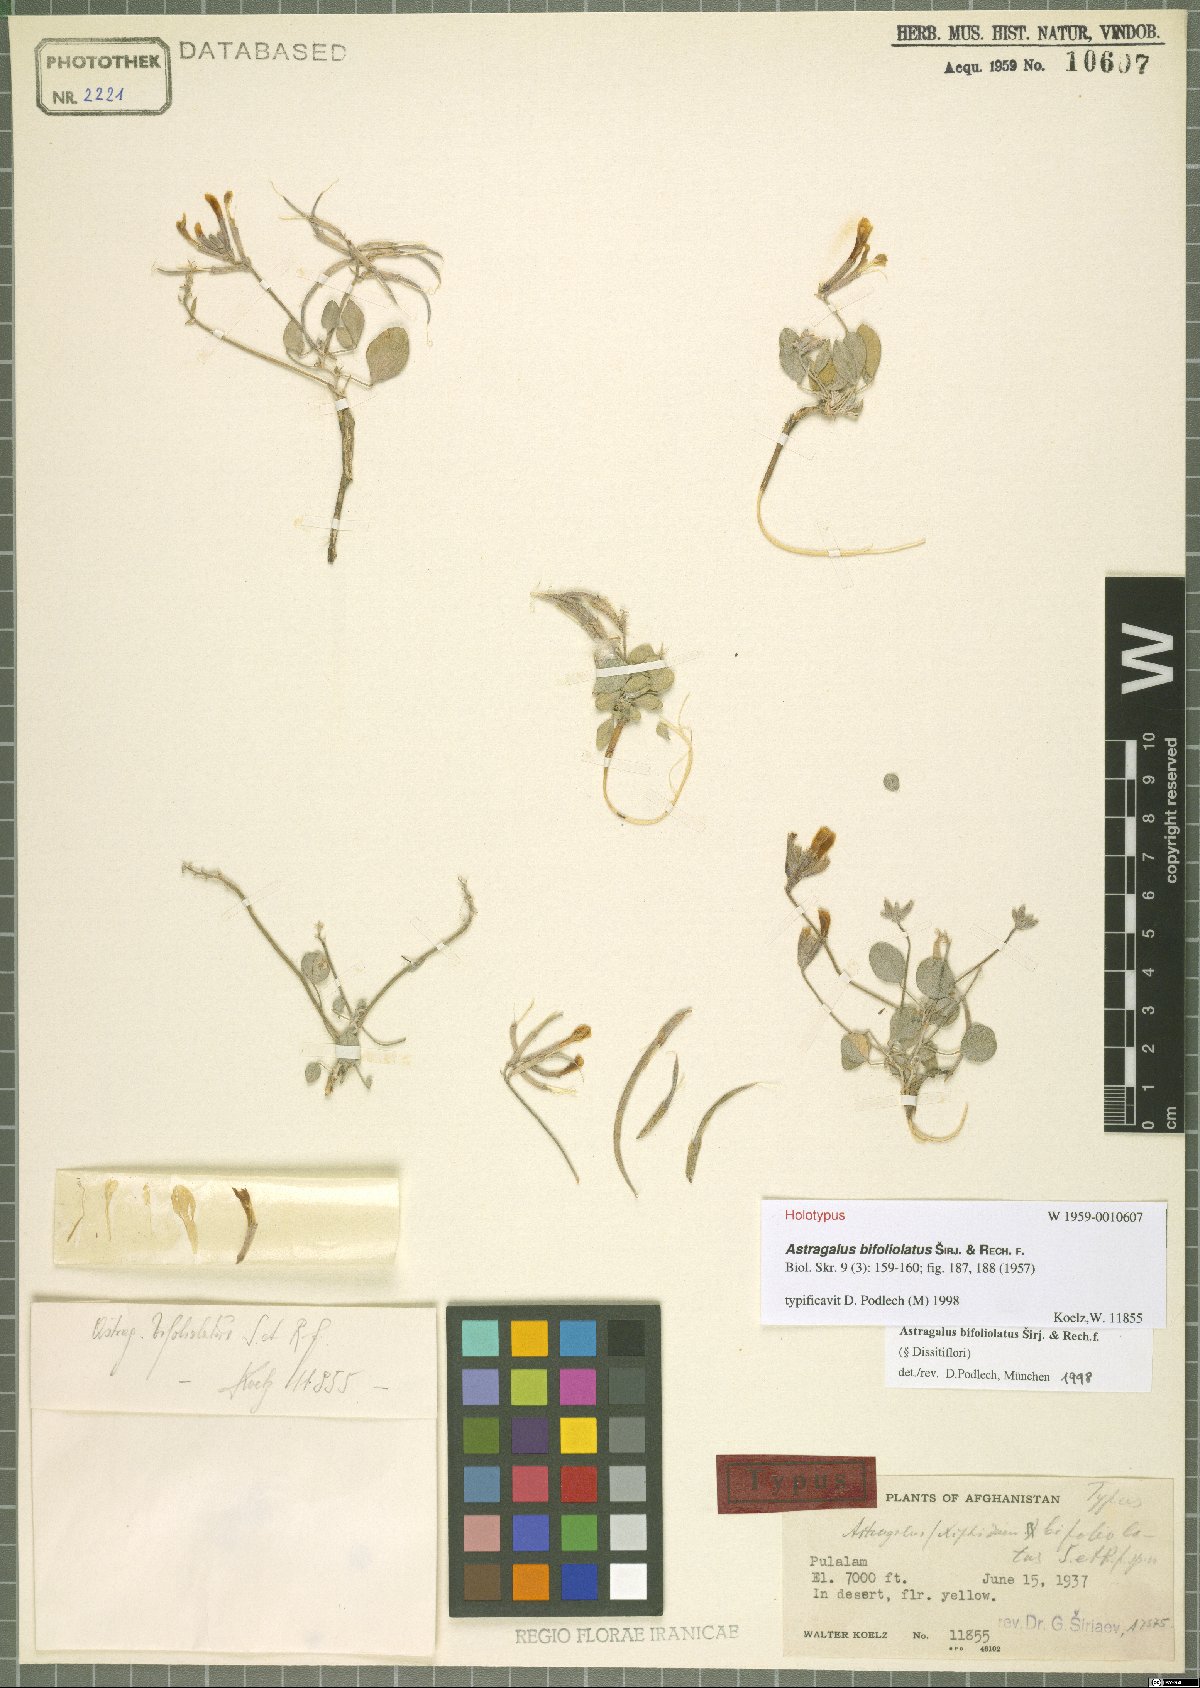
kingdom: Plantae
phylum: Tracheophyta
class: Magnoliopsida
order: Fabales
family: Fabaceae
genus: Astragalus
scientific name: Astragalus bifoliolatus
